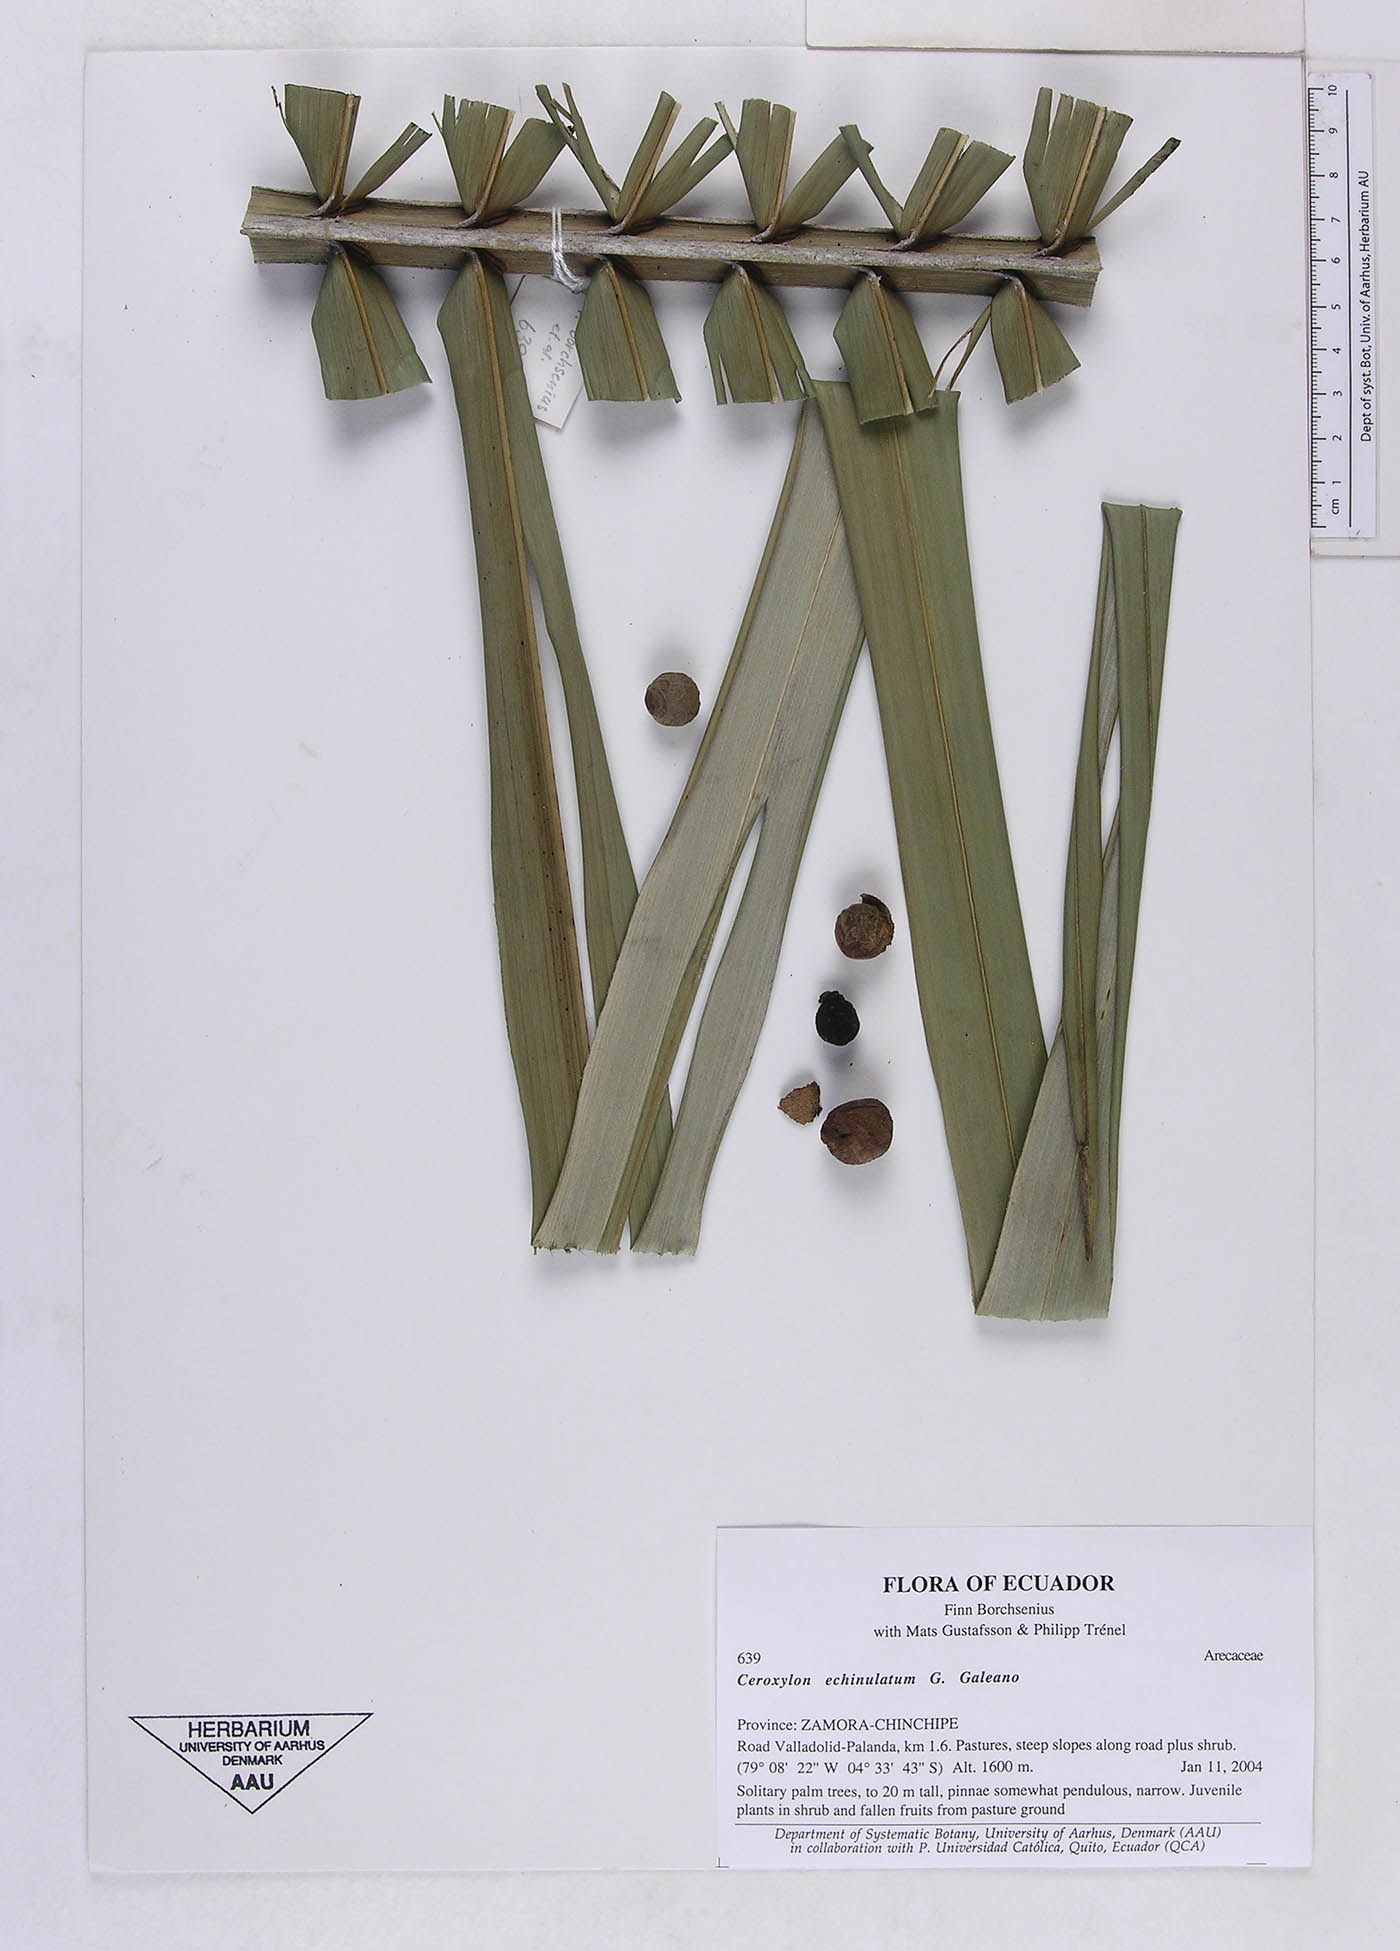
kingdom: Plantae
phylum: Tracheophyta
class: Liliopsida
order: Arecales
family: Arecaceae
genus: Ceroxylon
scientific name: Ceroxylon echinulatum
